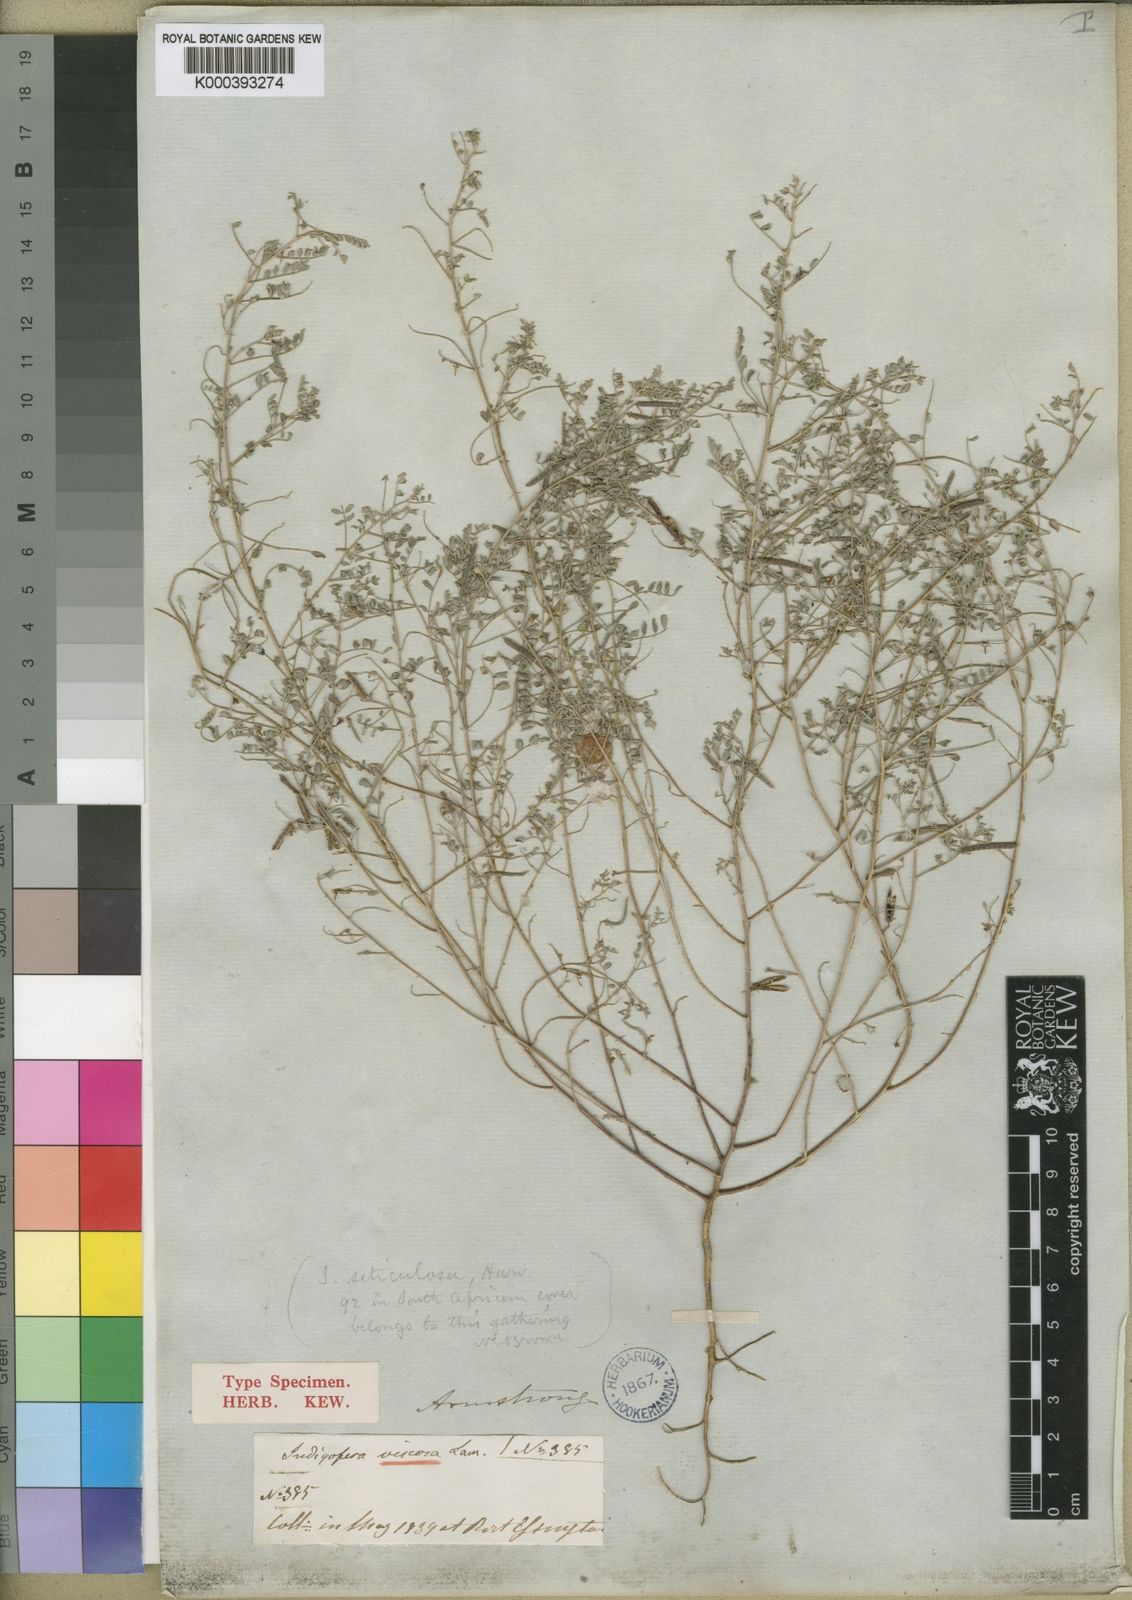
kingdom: Plantae
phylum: Tracheophyta
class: Magnoliopsida
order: Fabales
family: Fabaceae
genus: Indigofera
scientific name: Indigofera colutea
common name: Rusty indigo
